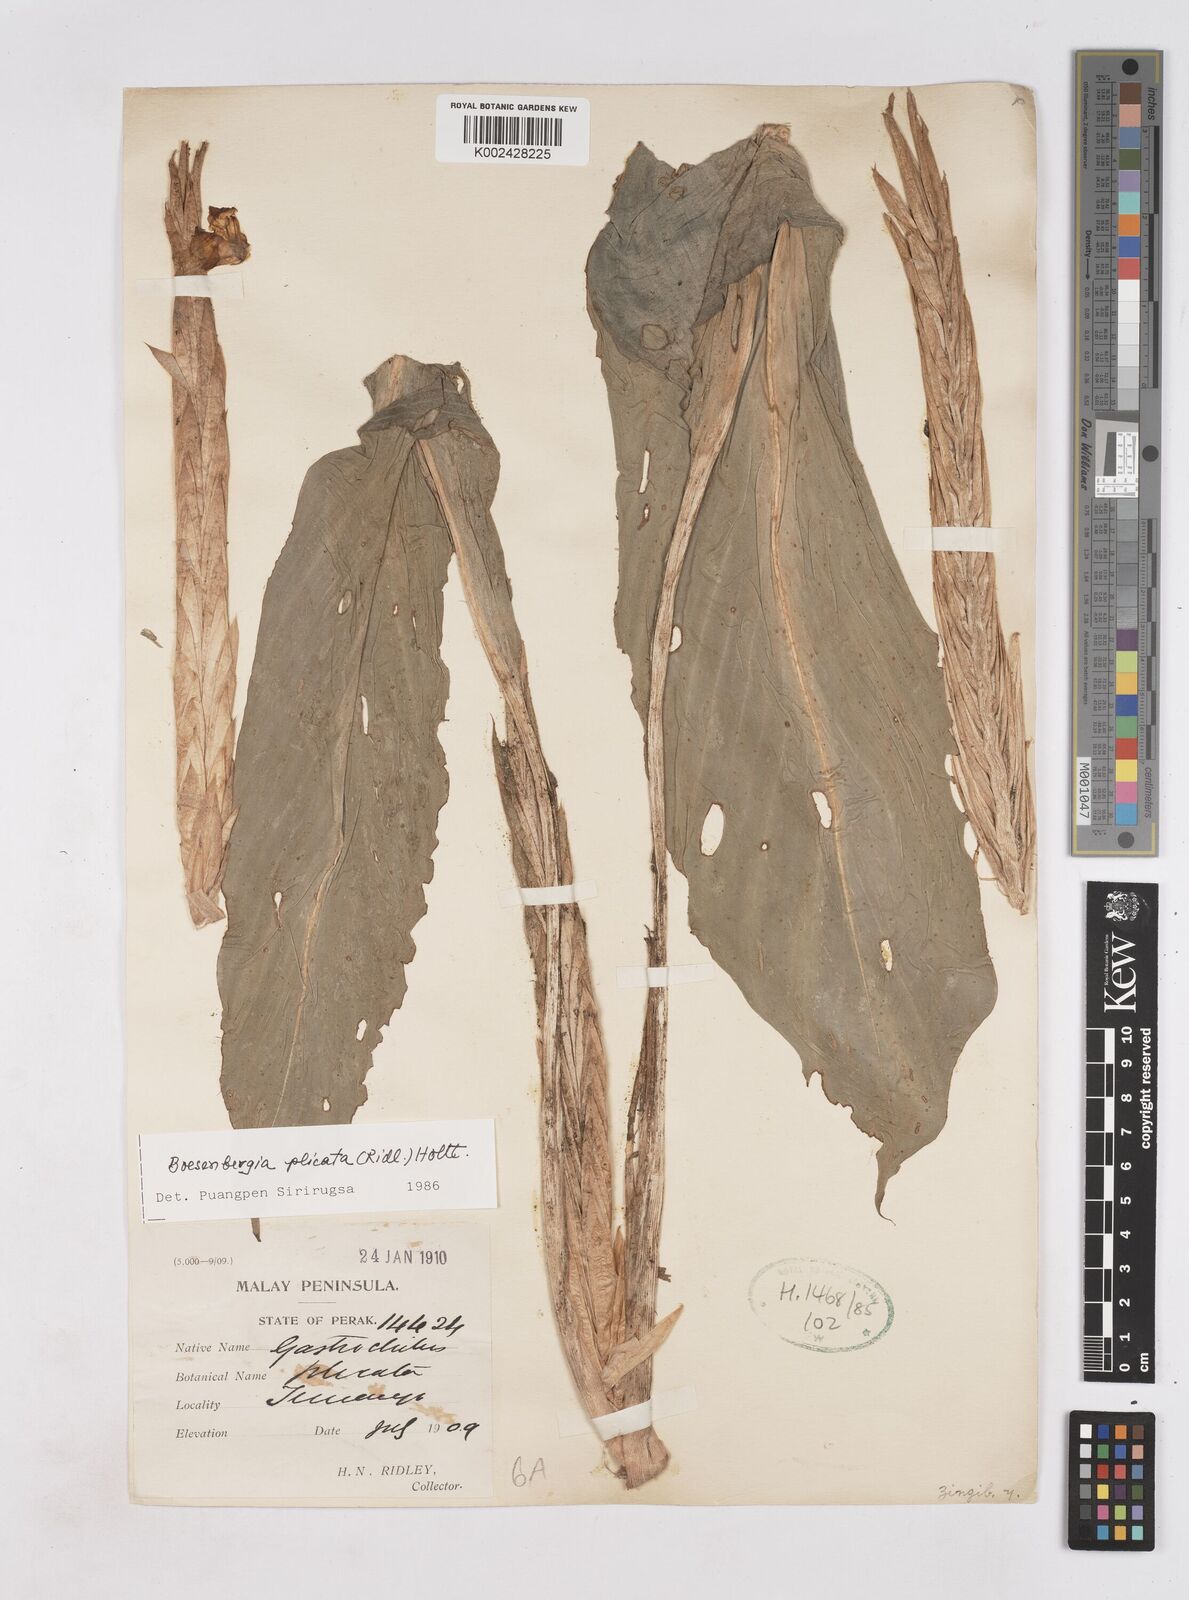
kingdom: Plantae
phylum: Tracheophyta
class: Liliopsida
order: Zingiberales
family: Zingiberaceae
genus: Boesenbergia
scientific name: Boesenbergia plicata
